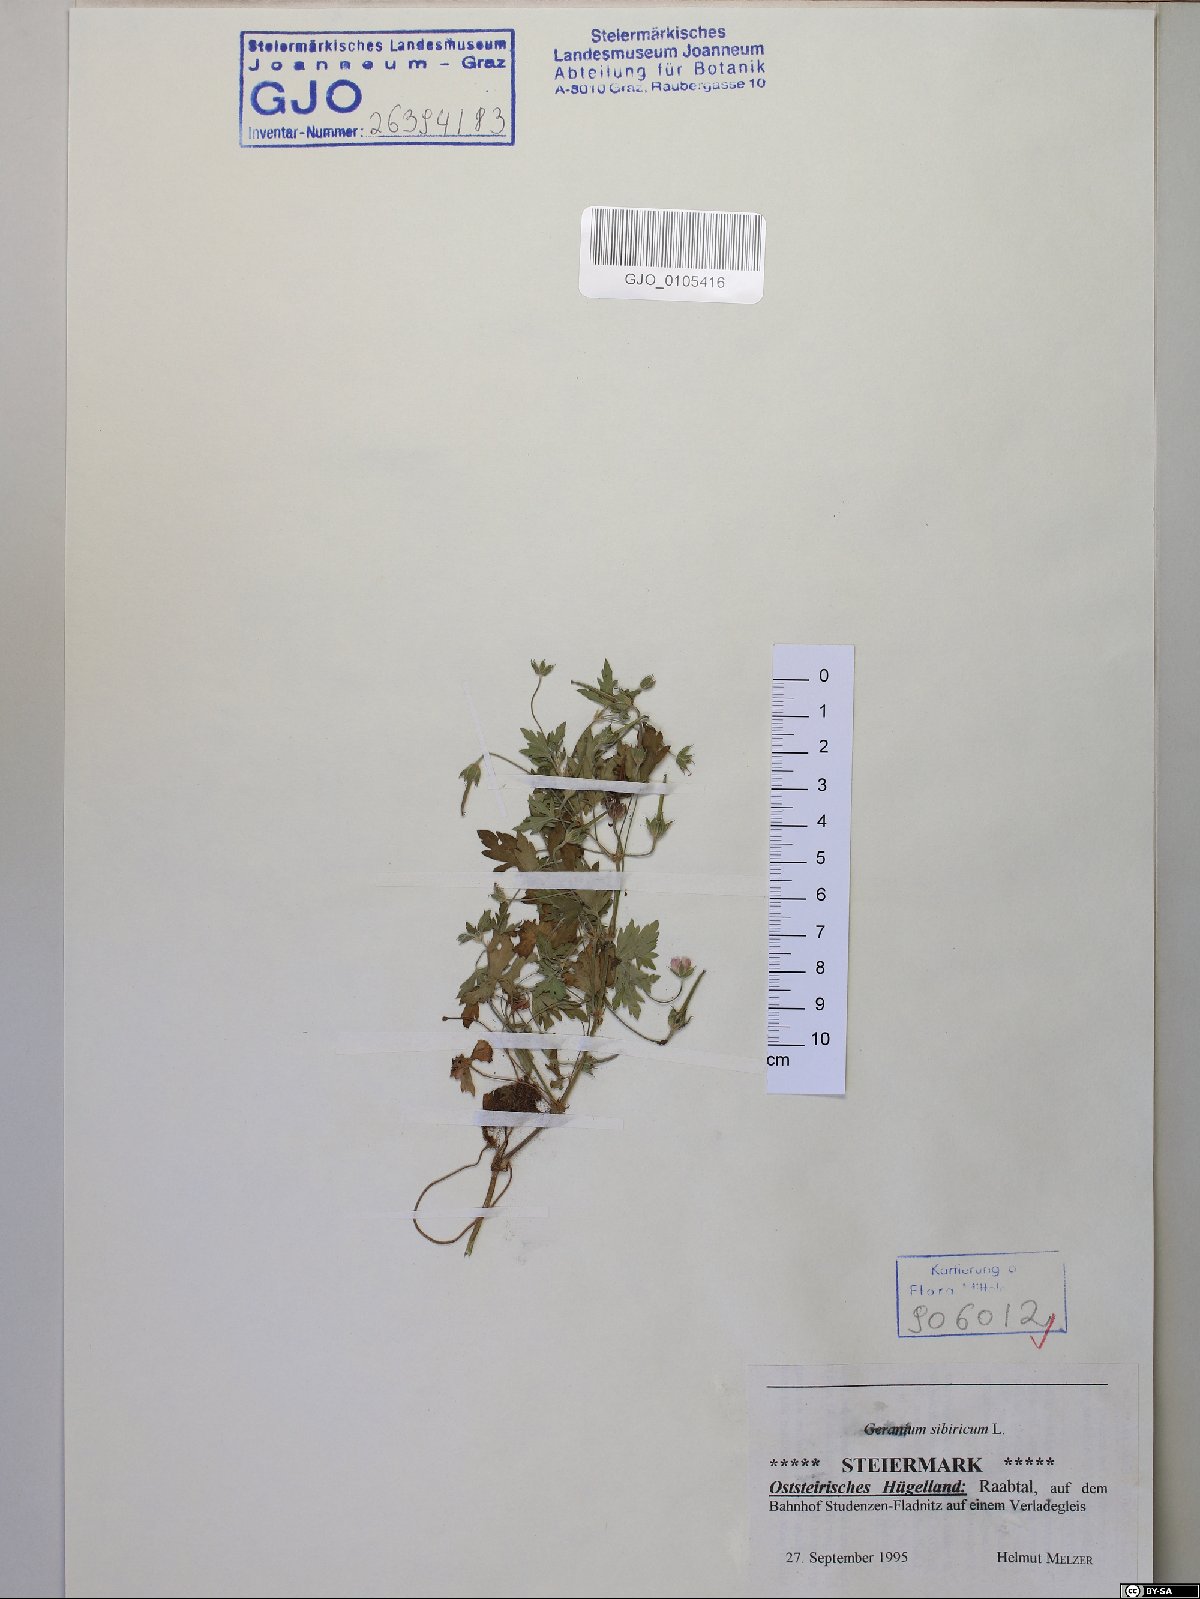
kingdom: Plantae
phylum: Tracheophyta
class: Magnoliopsida
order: Geraniales
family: Geraniaceae
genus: Geranium
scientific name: Geranium sibiricum
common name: Siberian crane's-bill
